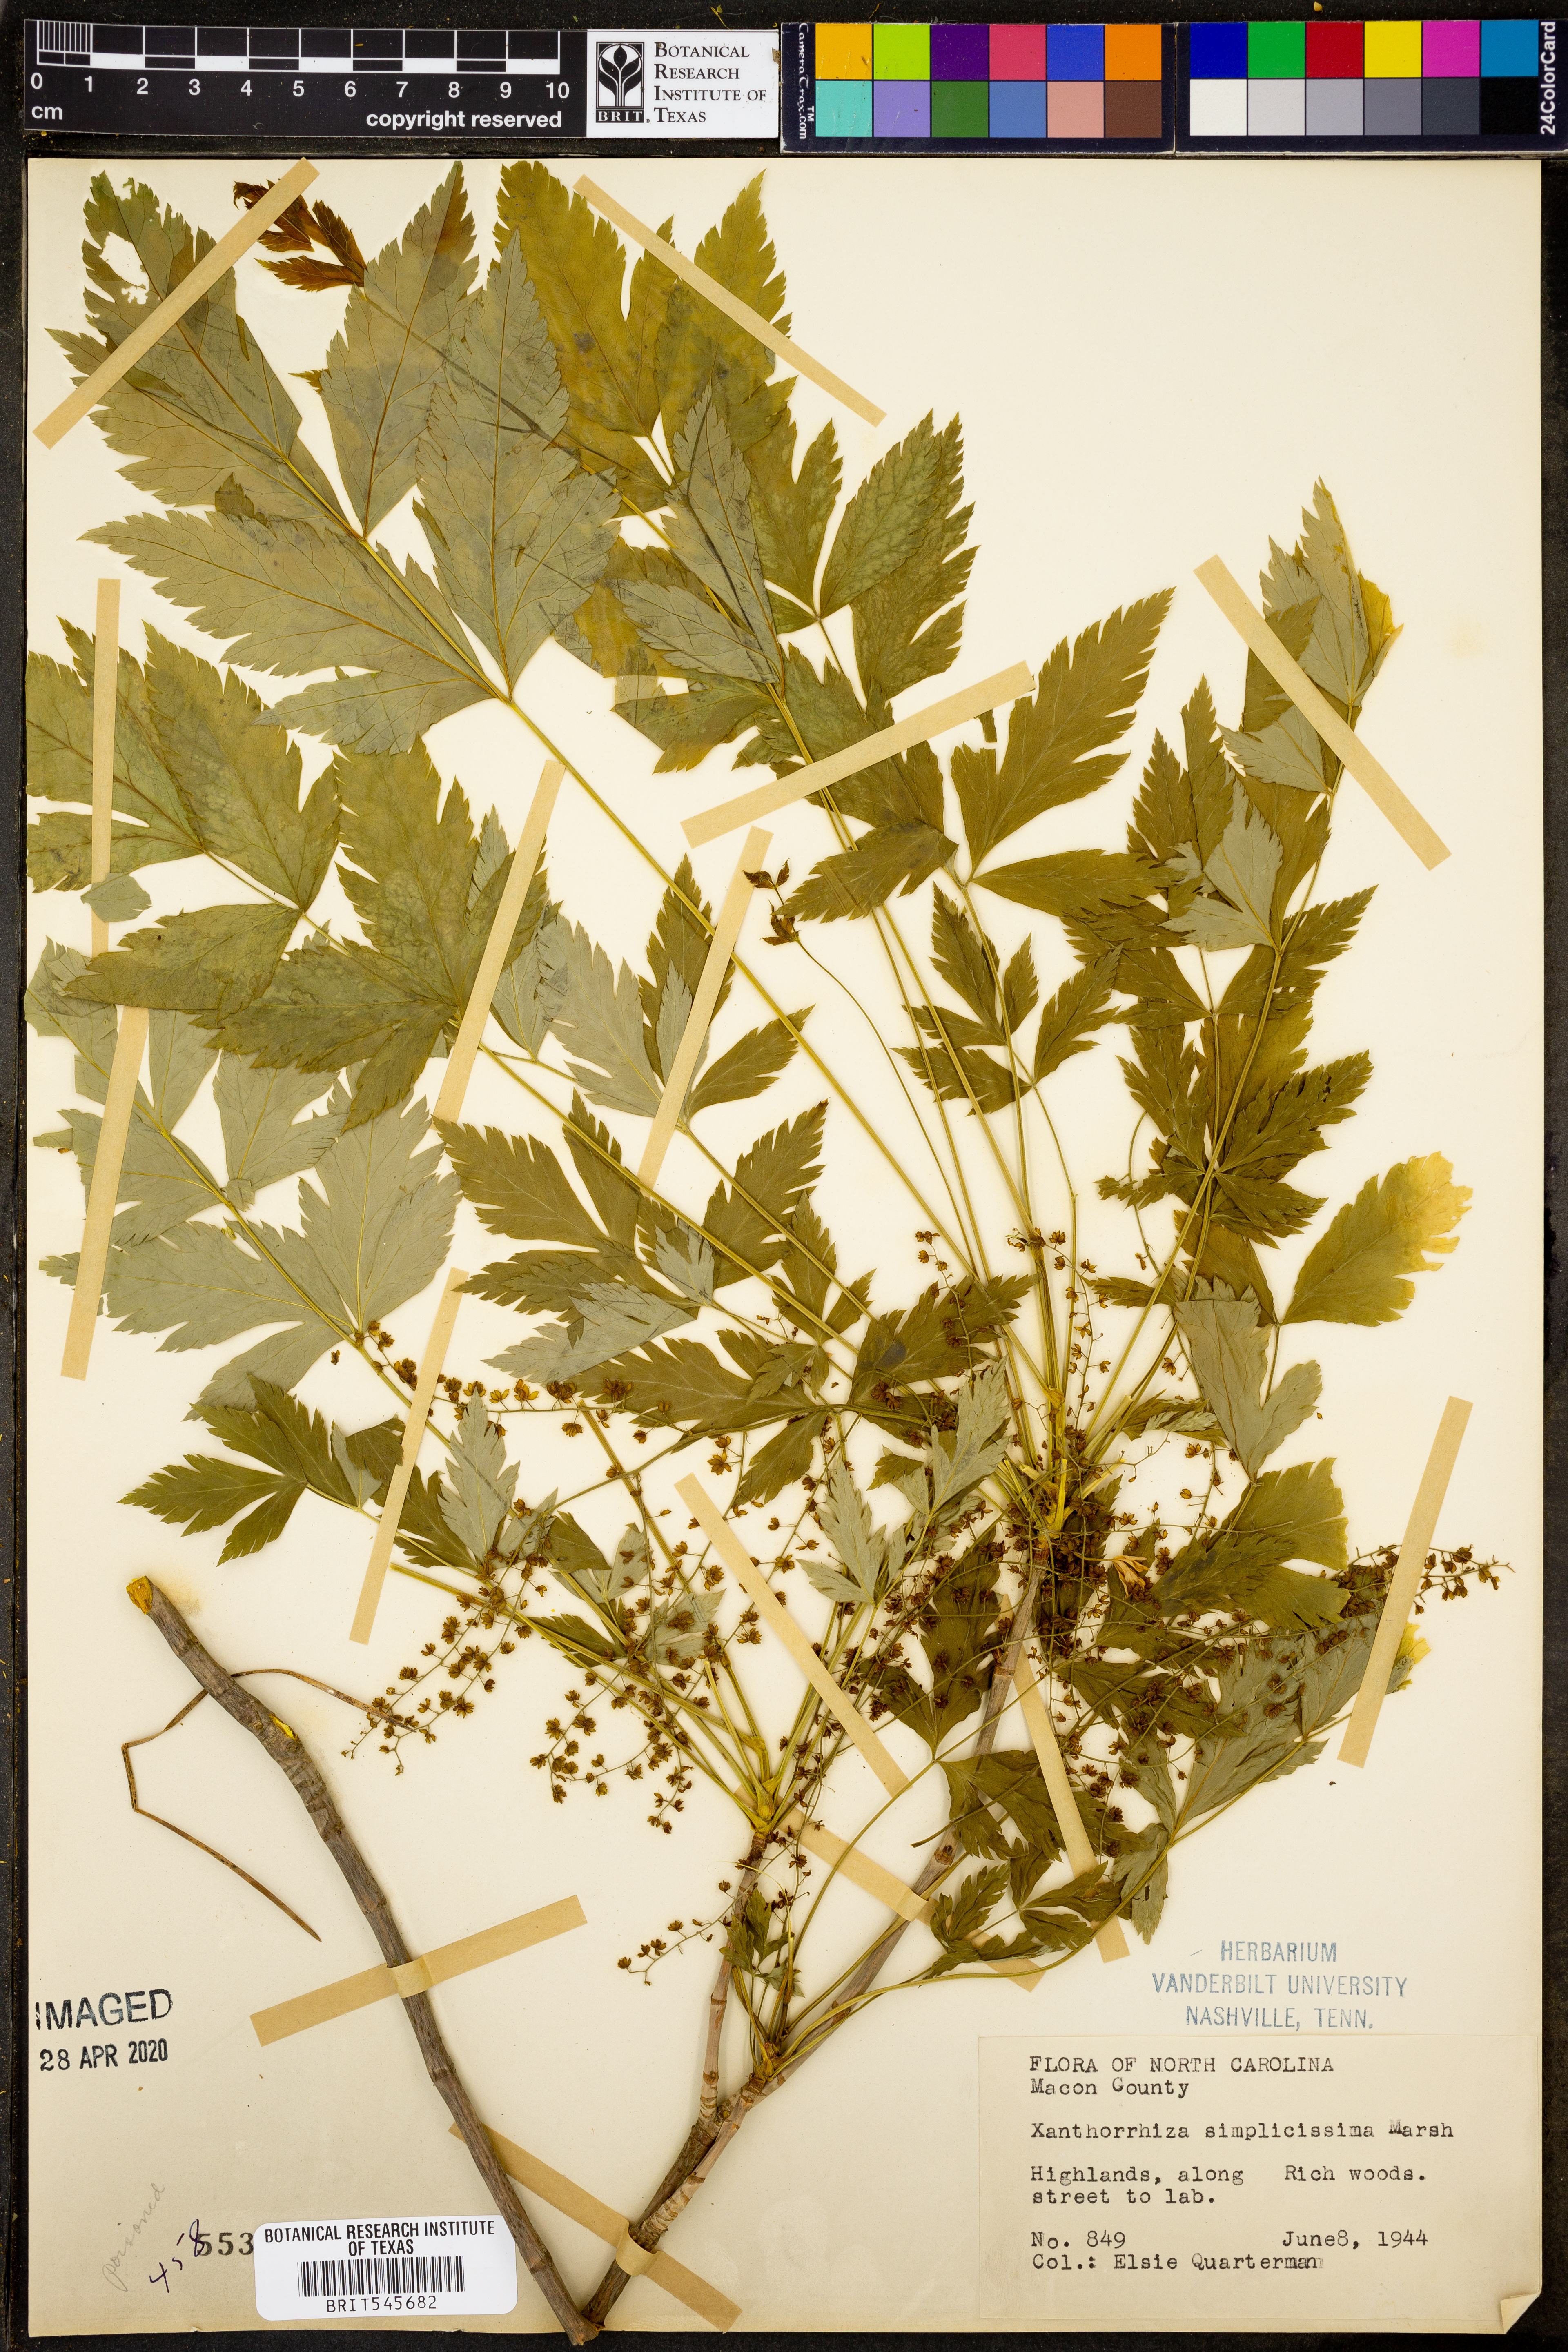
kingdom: Plantae
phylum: Tracheophyta
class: Magnoliopsida
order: Ranunculales
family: Ranunculaceae
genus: Xanthorhiza
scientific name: Xanthorhiza simplicissima
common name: Yellowroot
